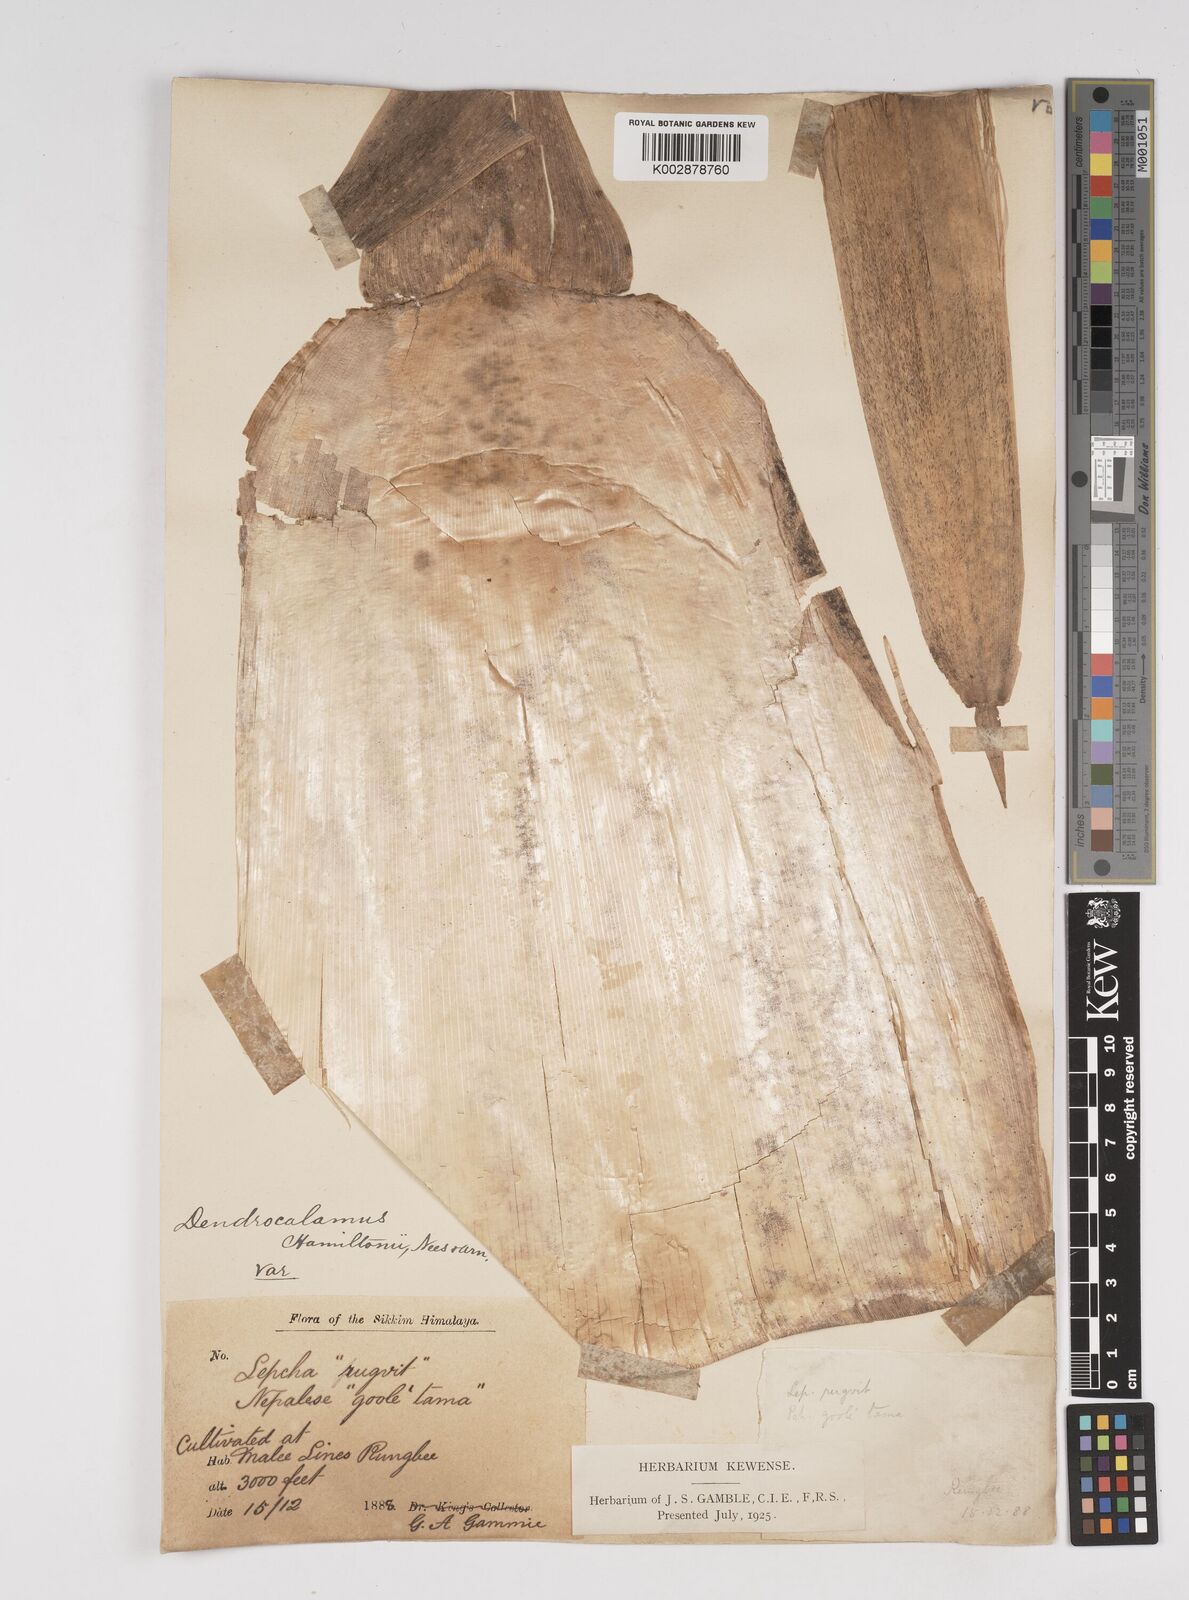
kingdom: Plantae
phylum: Tracheophyta
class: Liliopsida
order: Poales
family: Poaceae
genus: Dendrocalamus
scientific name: Dendrocalamus hamiltonii
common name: Tama bamboo
